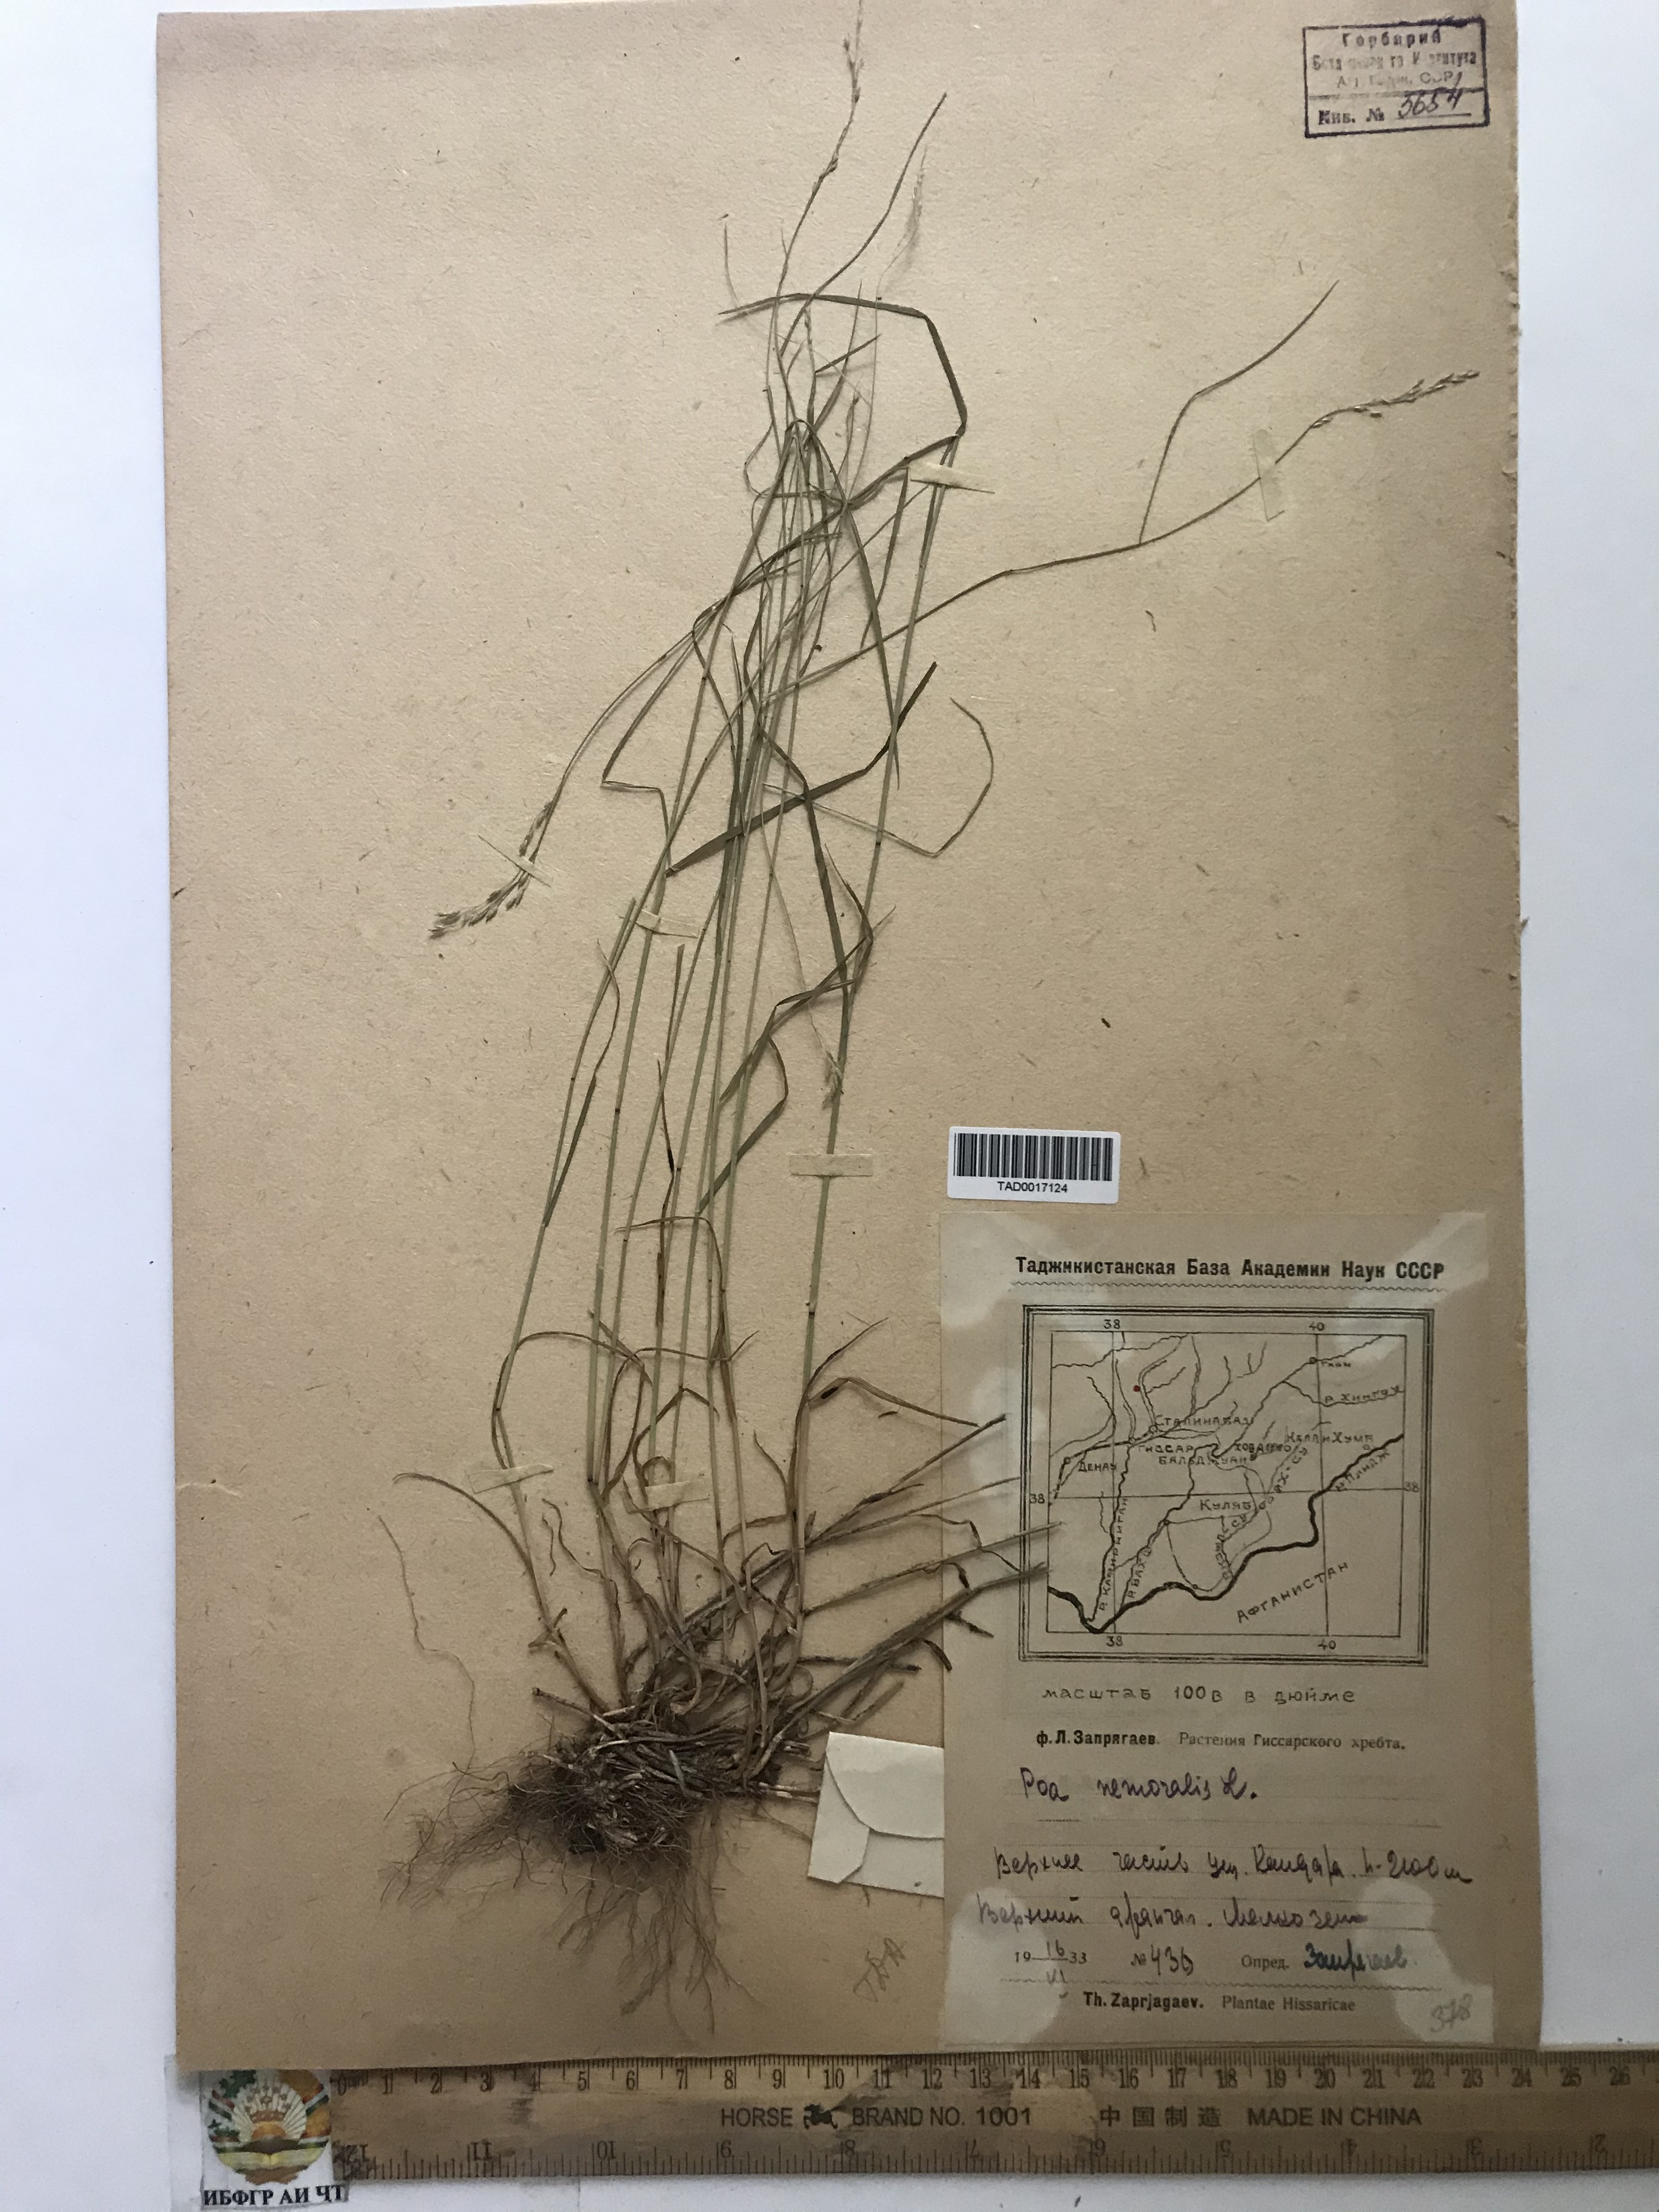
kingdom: Plantae
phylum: Tracheophyta
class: Liliopsida
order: Poales
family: Poaceae
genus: Poa
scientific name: Poa nemoralis
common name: Wood bluegrass
